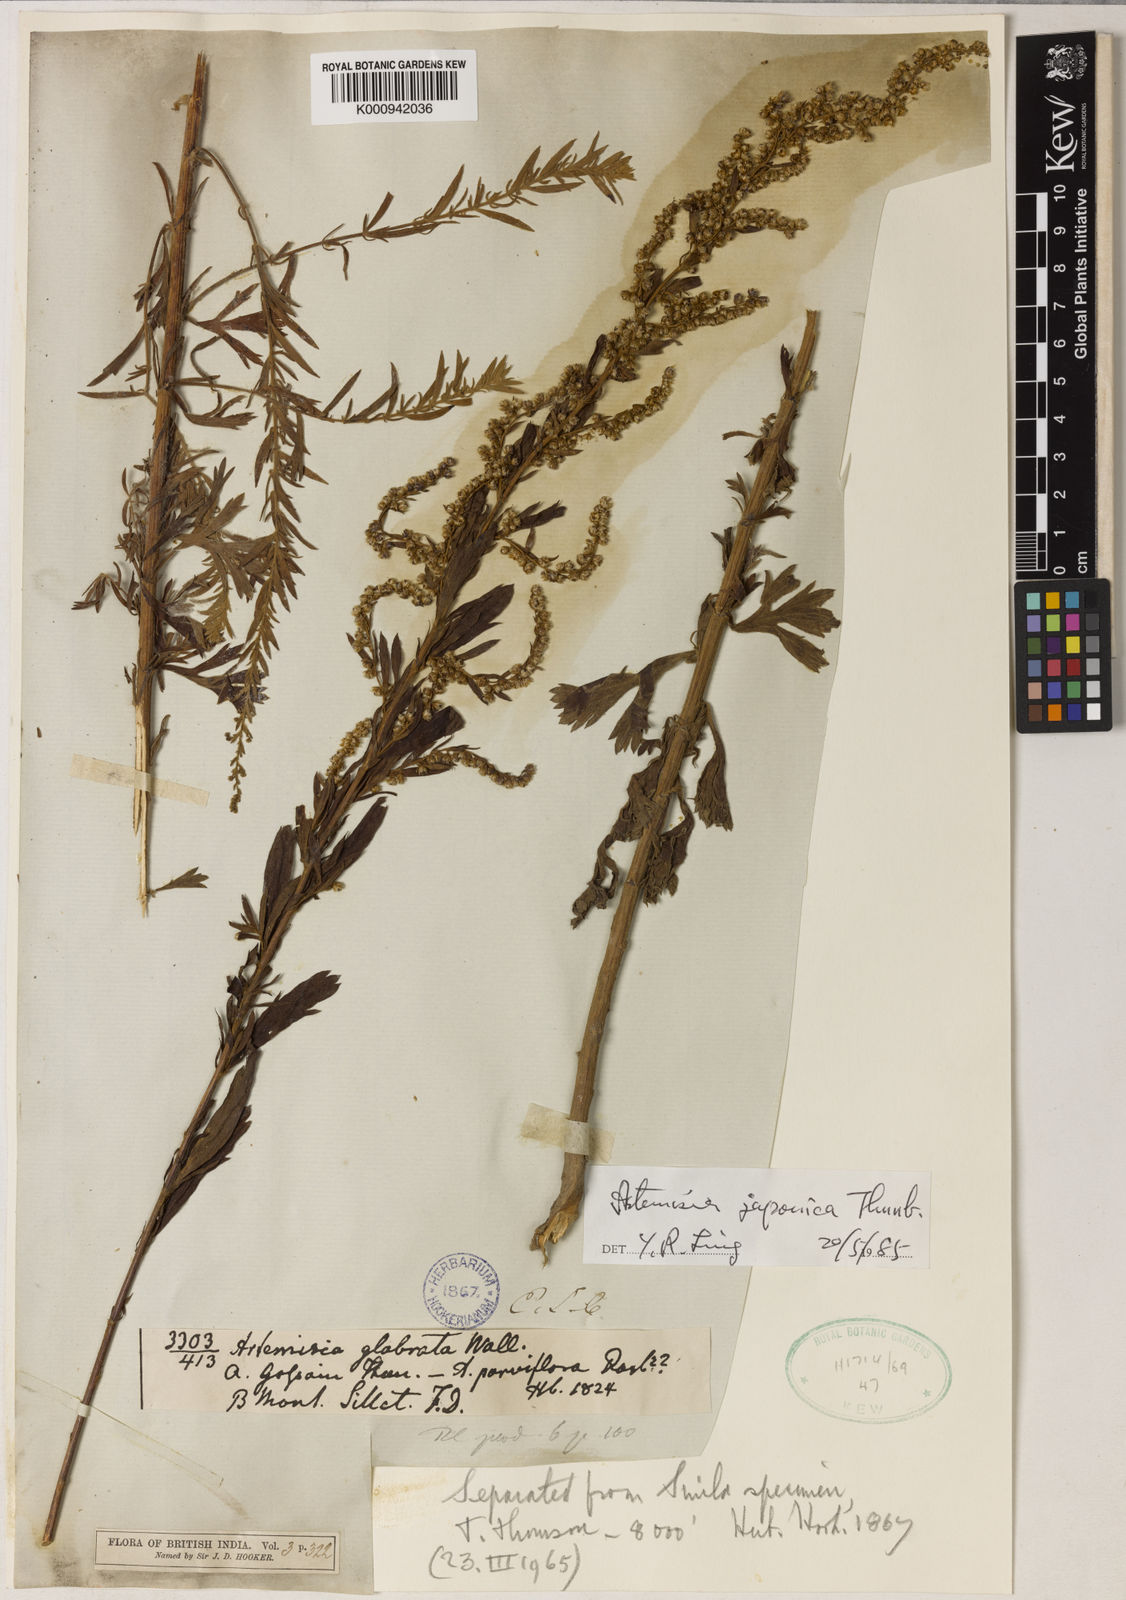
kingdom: Plantae
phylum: Tracheophyta
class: Magnoliopsida
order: Asterales
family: Asteraceae
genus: Artemisia
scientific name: Artemisia japonica
